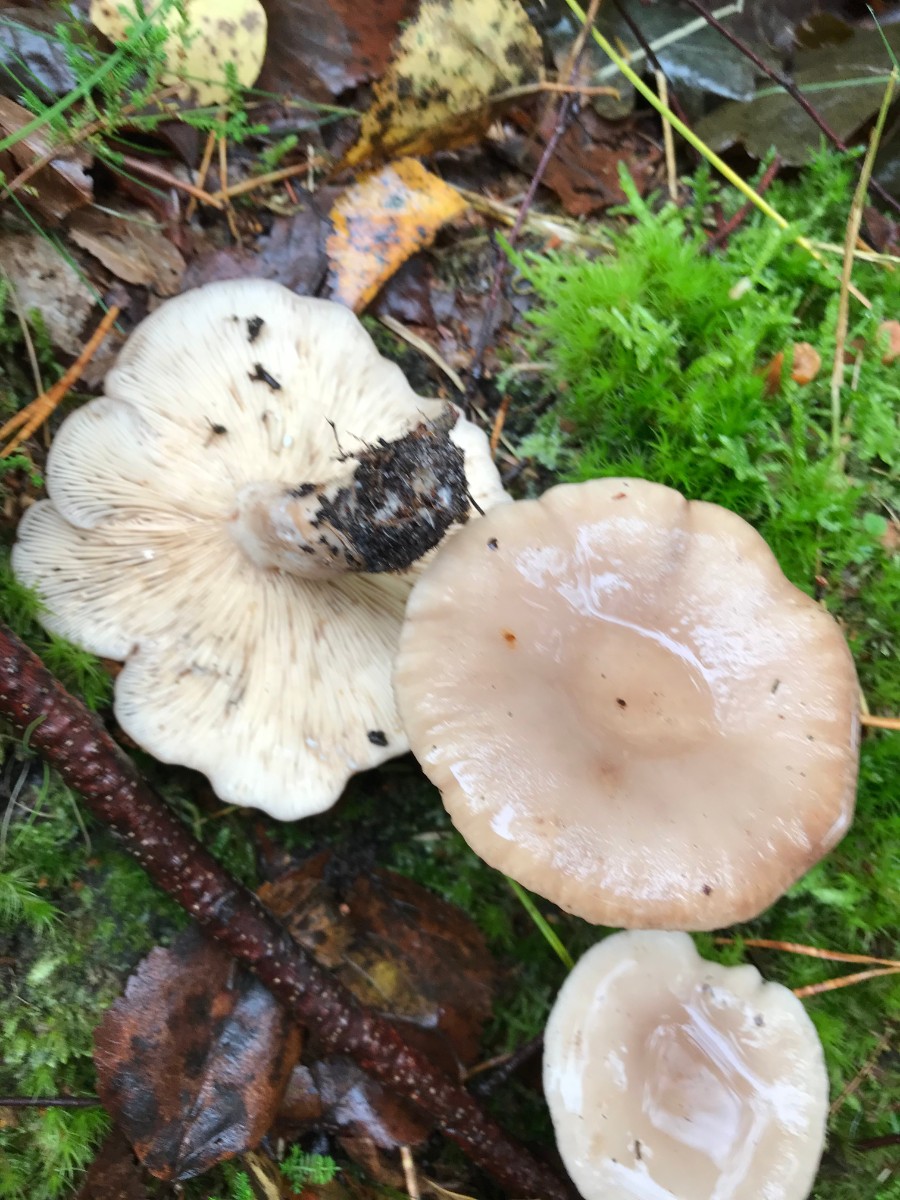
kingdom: Fungi
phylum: Basidiomycota
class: Agaricomycetes
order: Russulales
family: Russulaceae
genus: Lactarius
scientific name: Lactarius vietus
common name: violetgrå mælkehat
